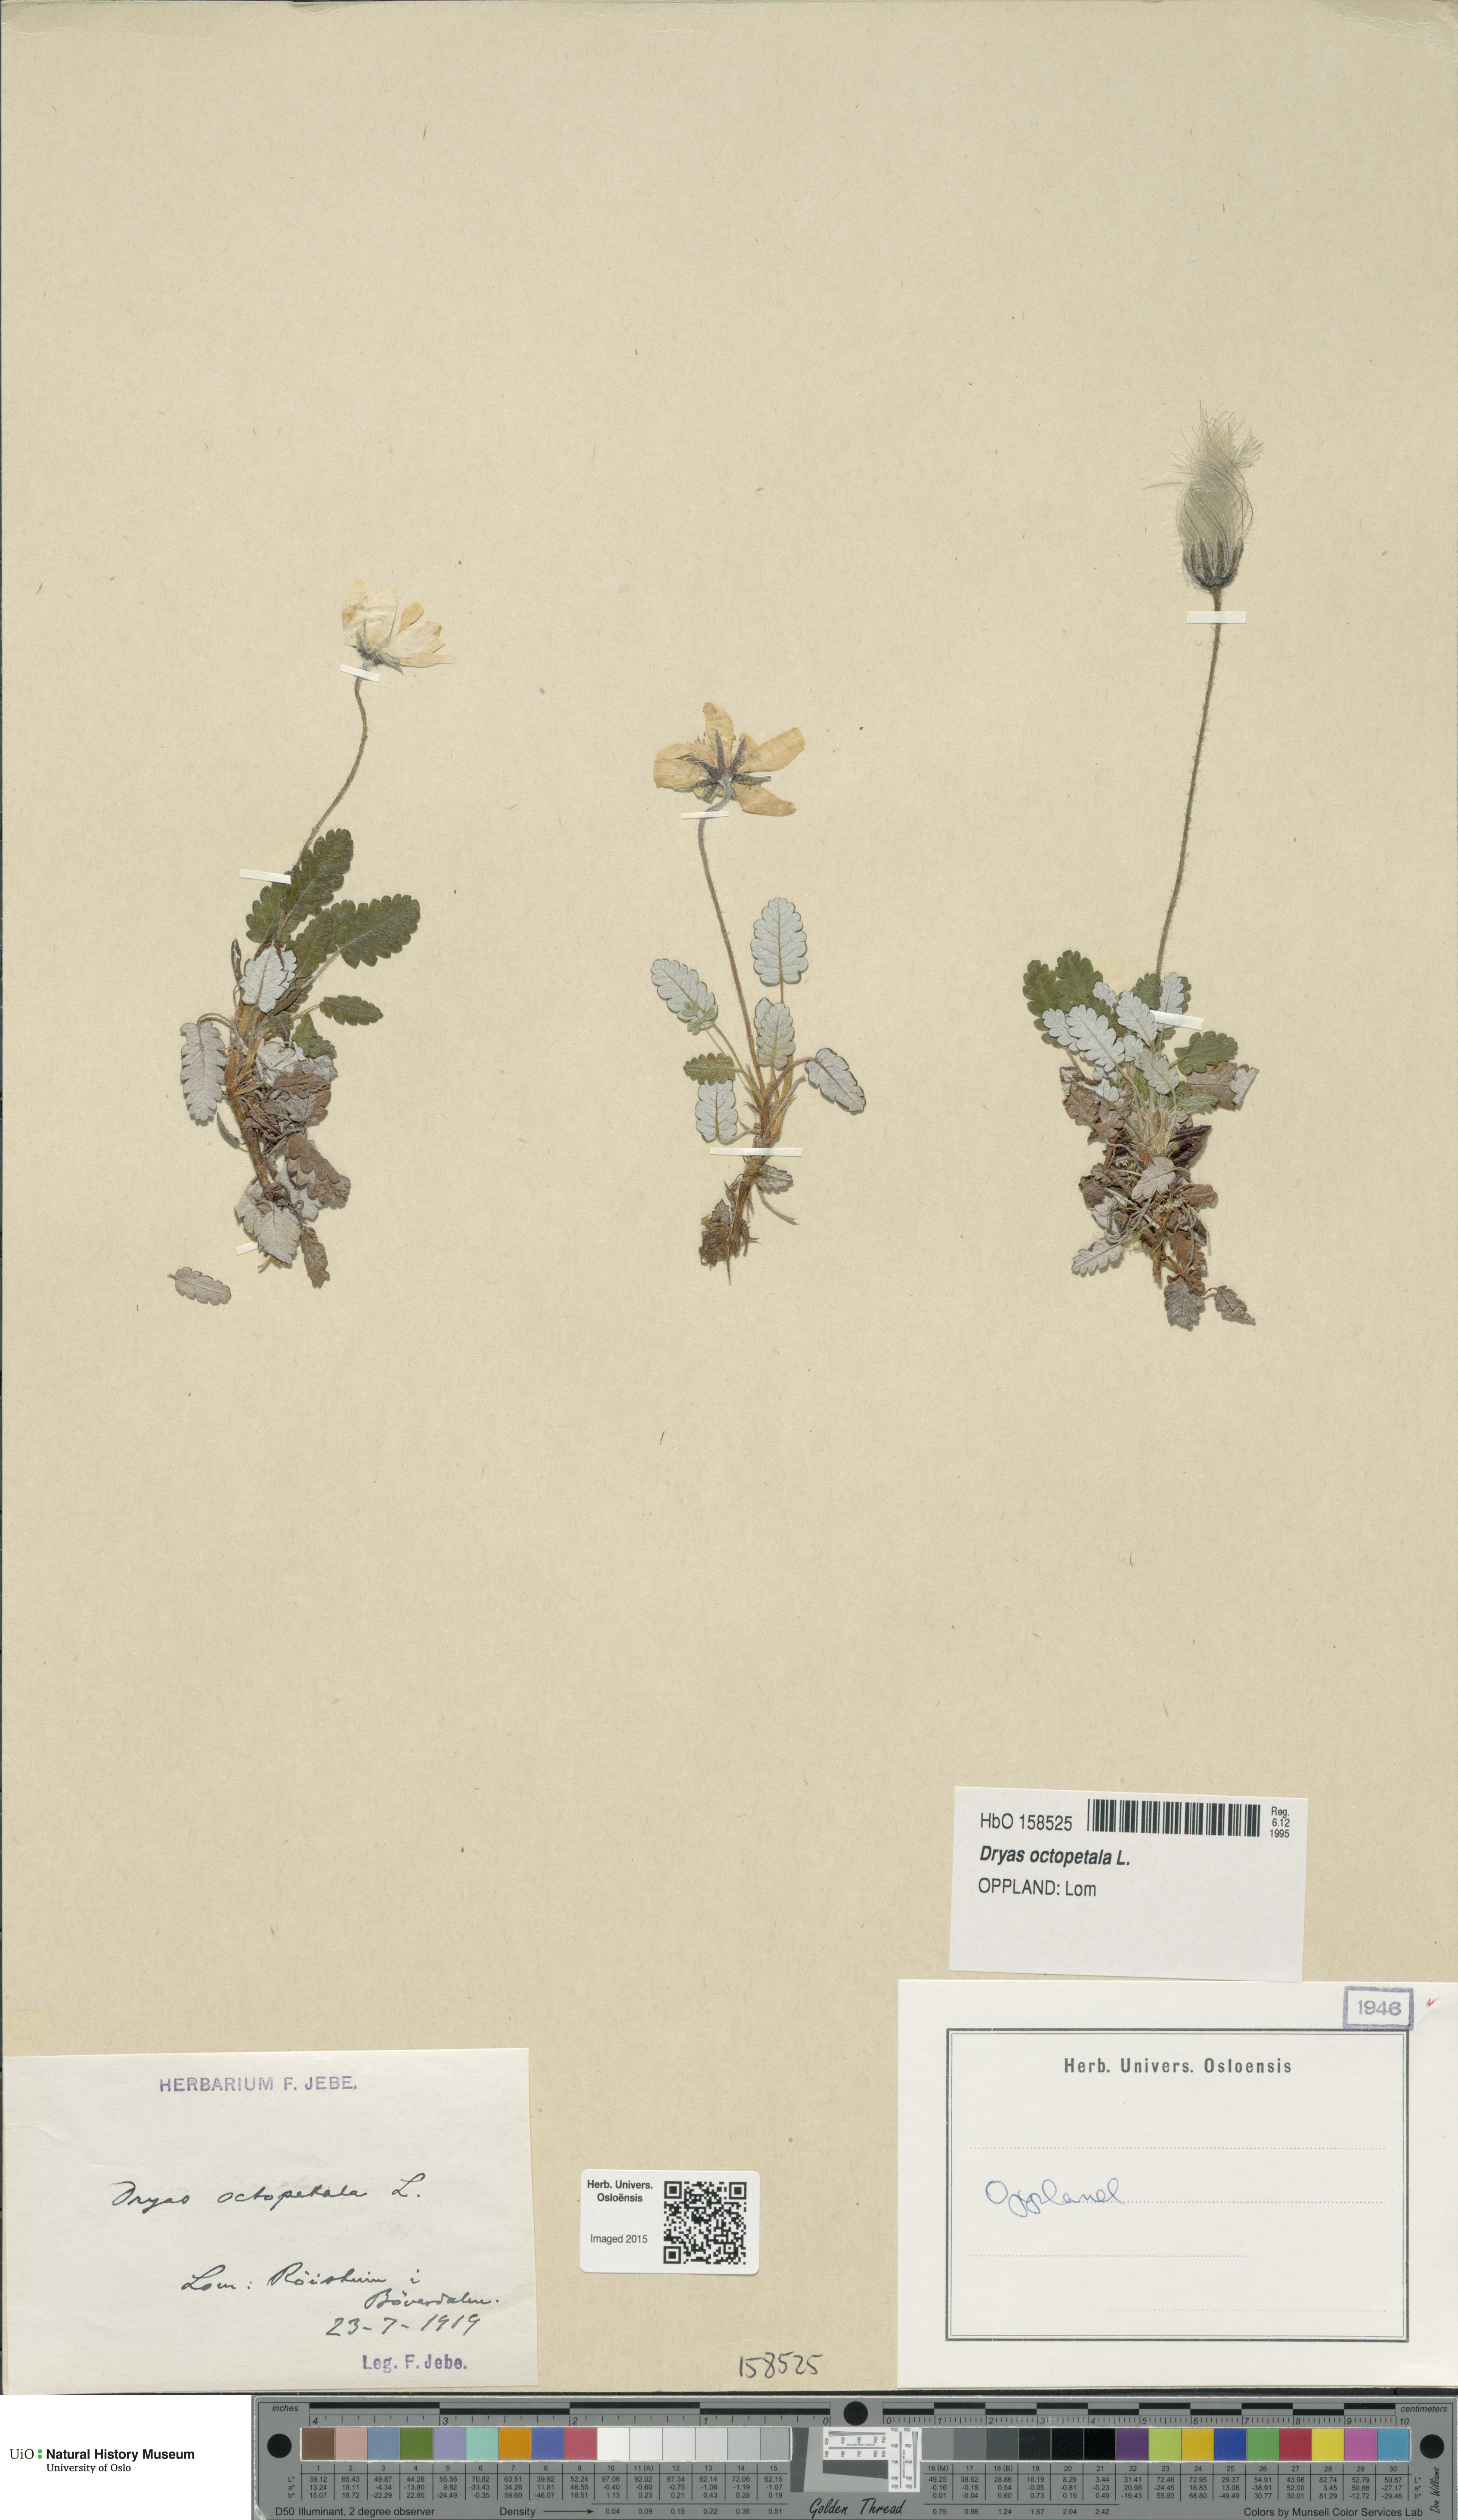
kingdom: Plantae
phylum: Tracheophyta
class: Magnoliopsida
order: Rosales
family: Rosaceae
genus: Dryas
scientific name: Dryas octopetala
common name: Eight-petal mountain-avens
